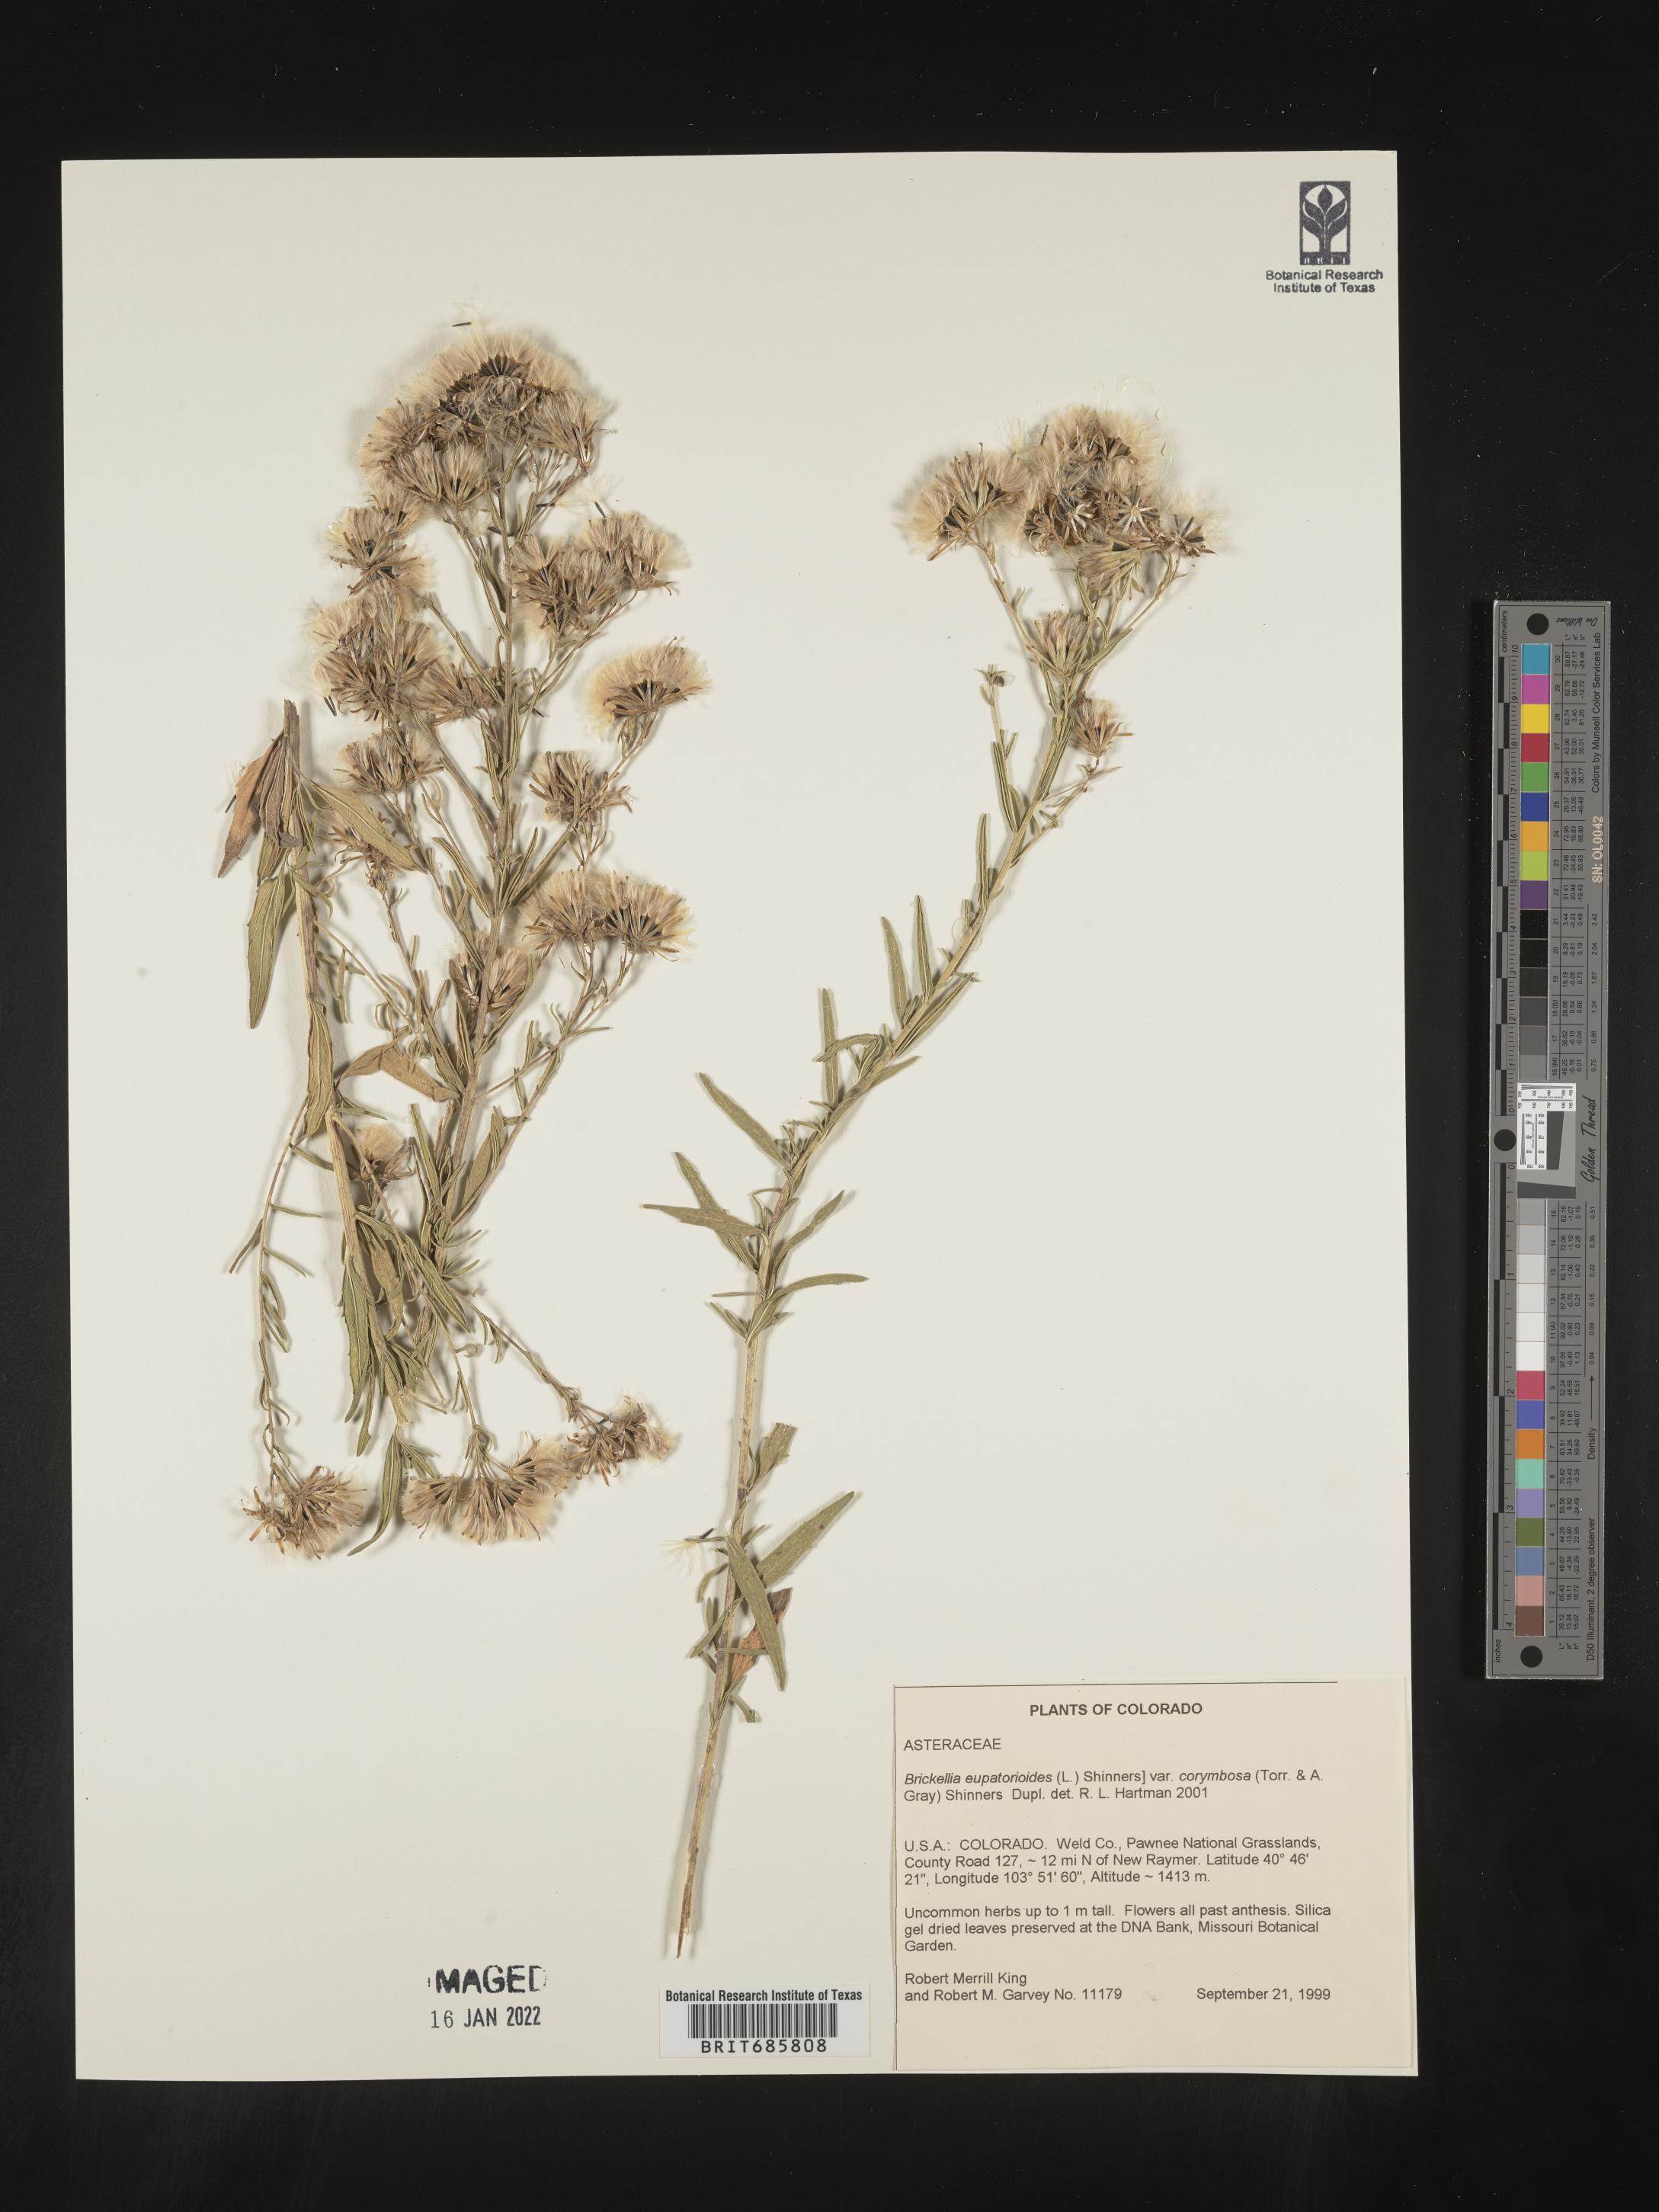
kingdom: Plantae
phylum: Tracheophyta
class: Magnoliopsida
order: Asterales
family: Asteraceae
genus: Brickellia
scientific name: Brickellia eupatorioides
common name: False boneset
